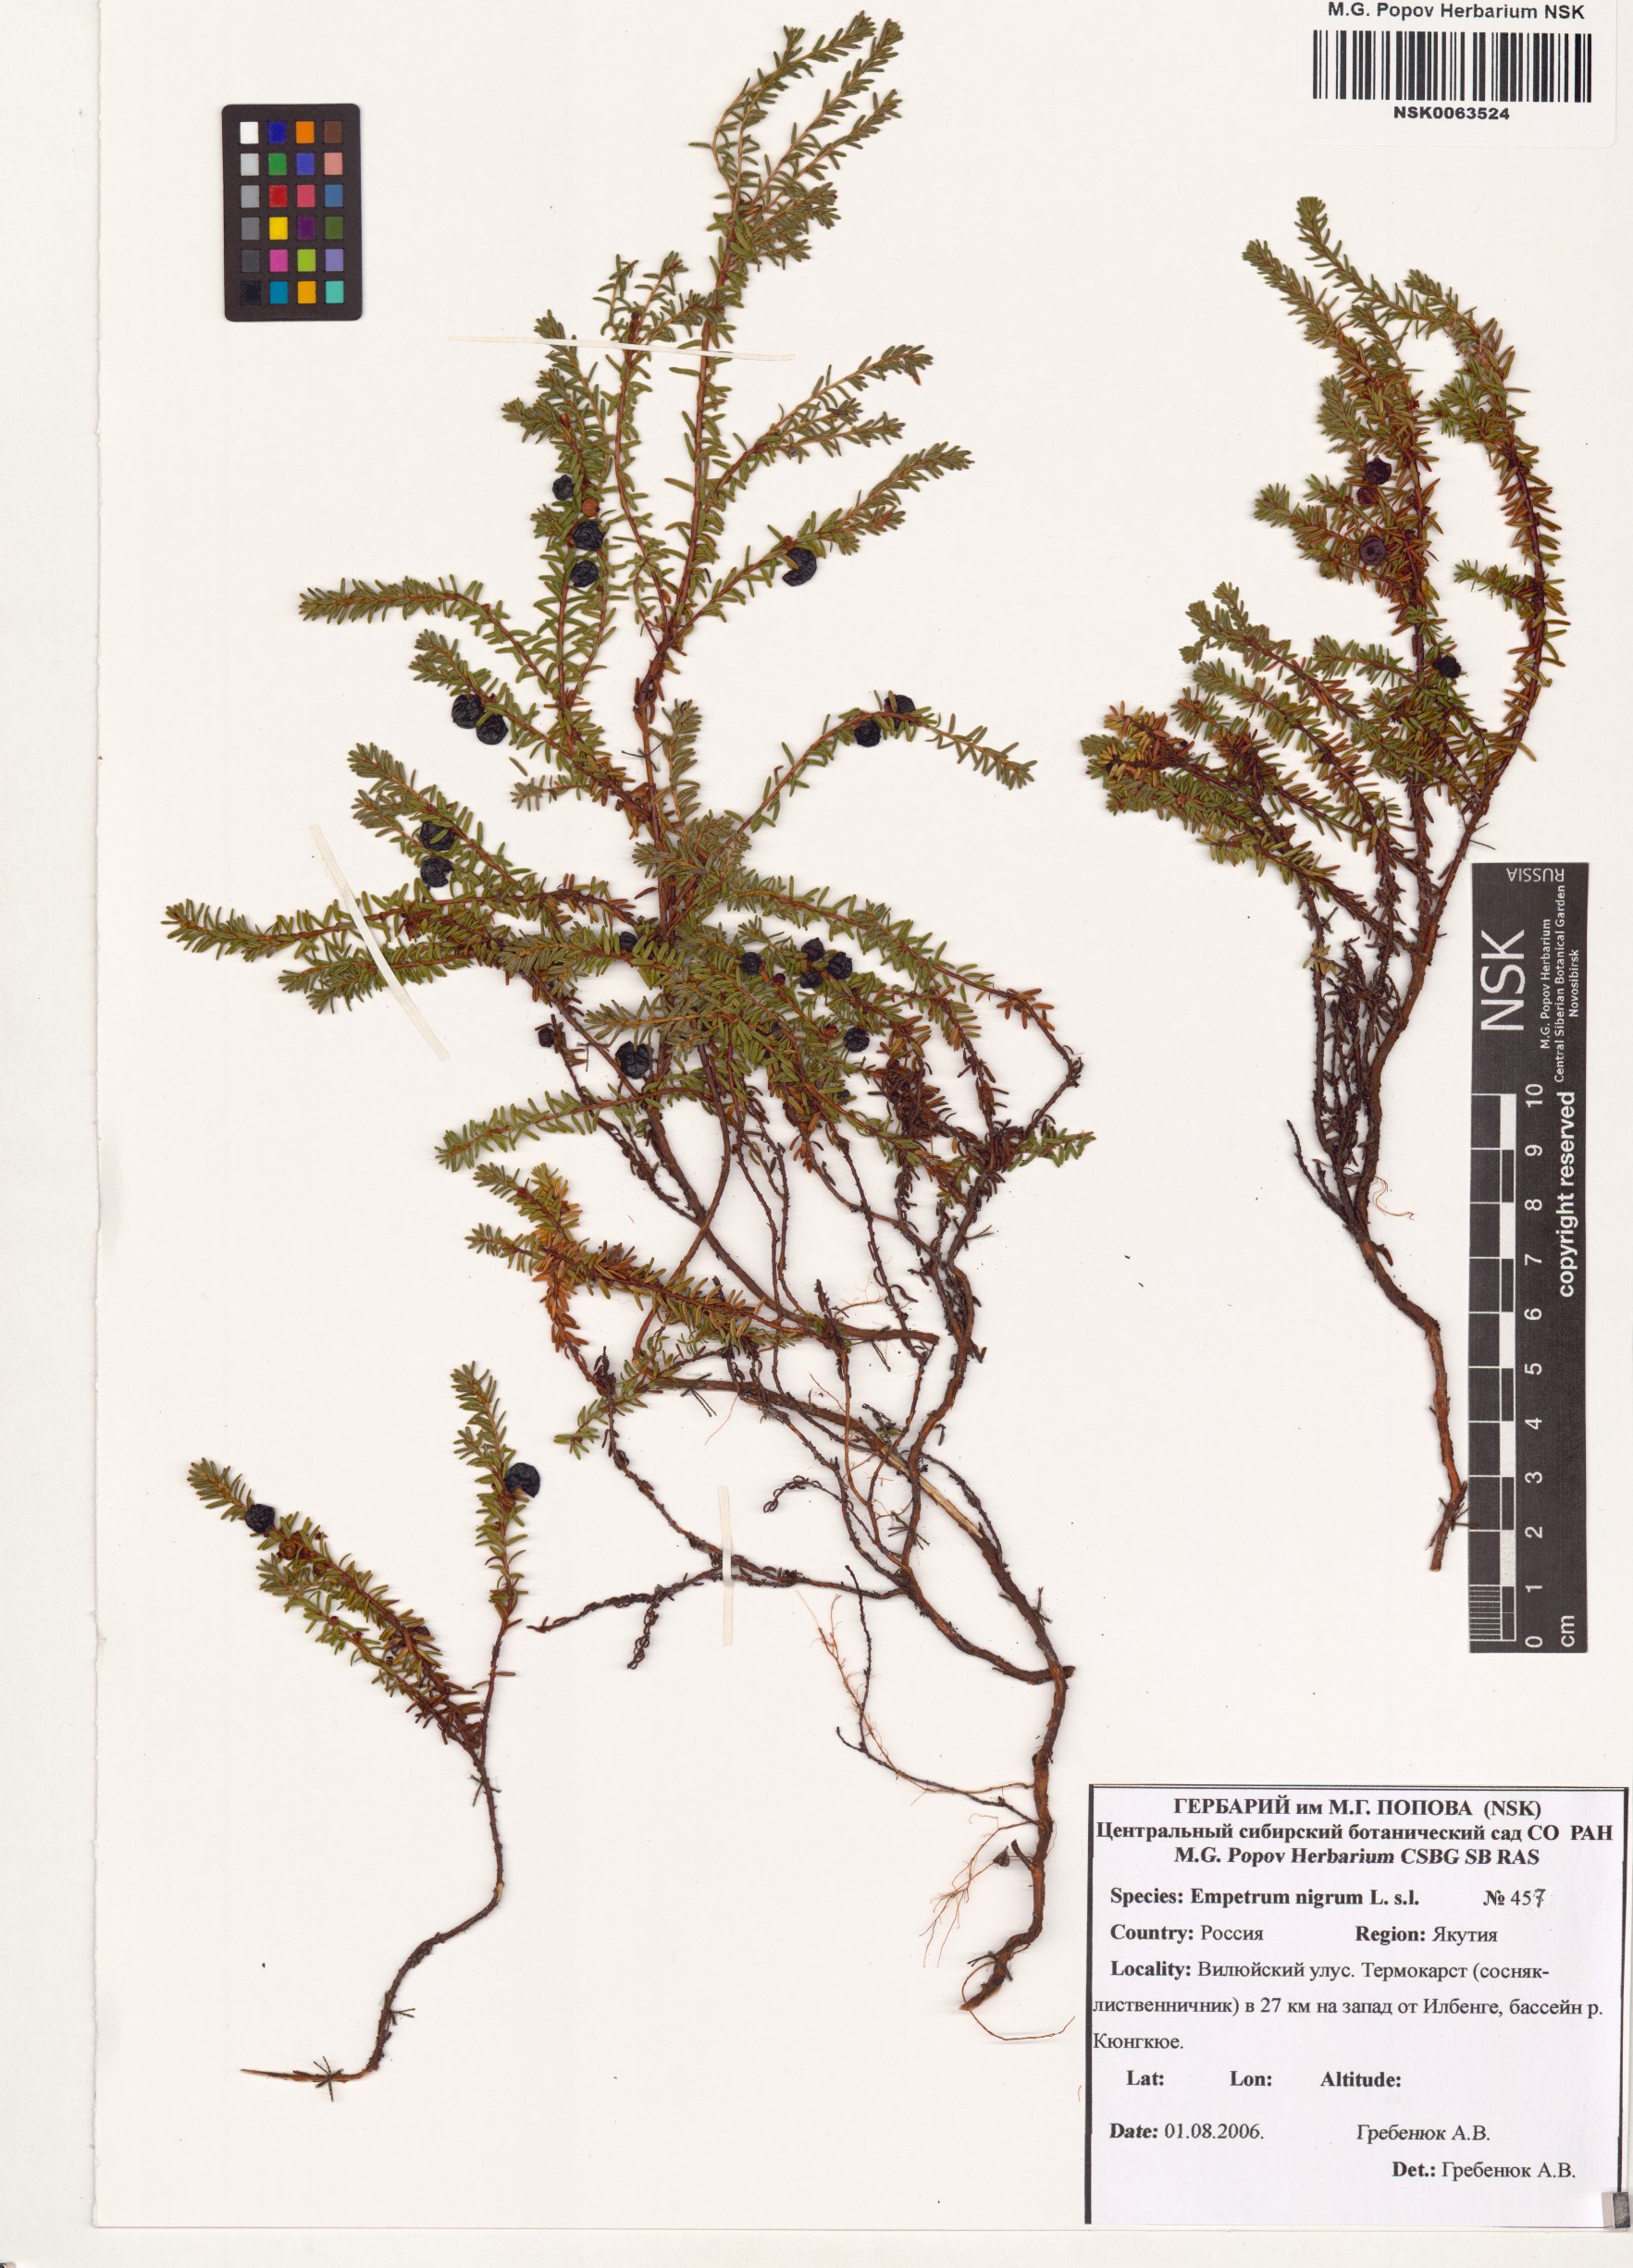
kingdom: Plantae
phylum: Tracheophyta
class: Magnoliopsida
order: Ericales
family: Ericaceae
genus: Empetrum
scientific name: Empetrum nigrum
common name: Black crowberry
